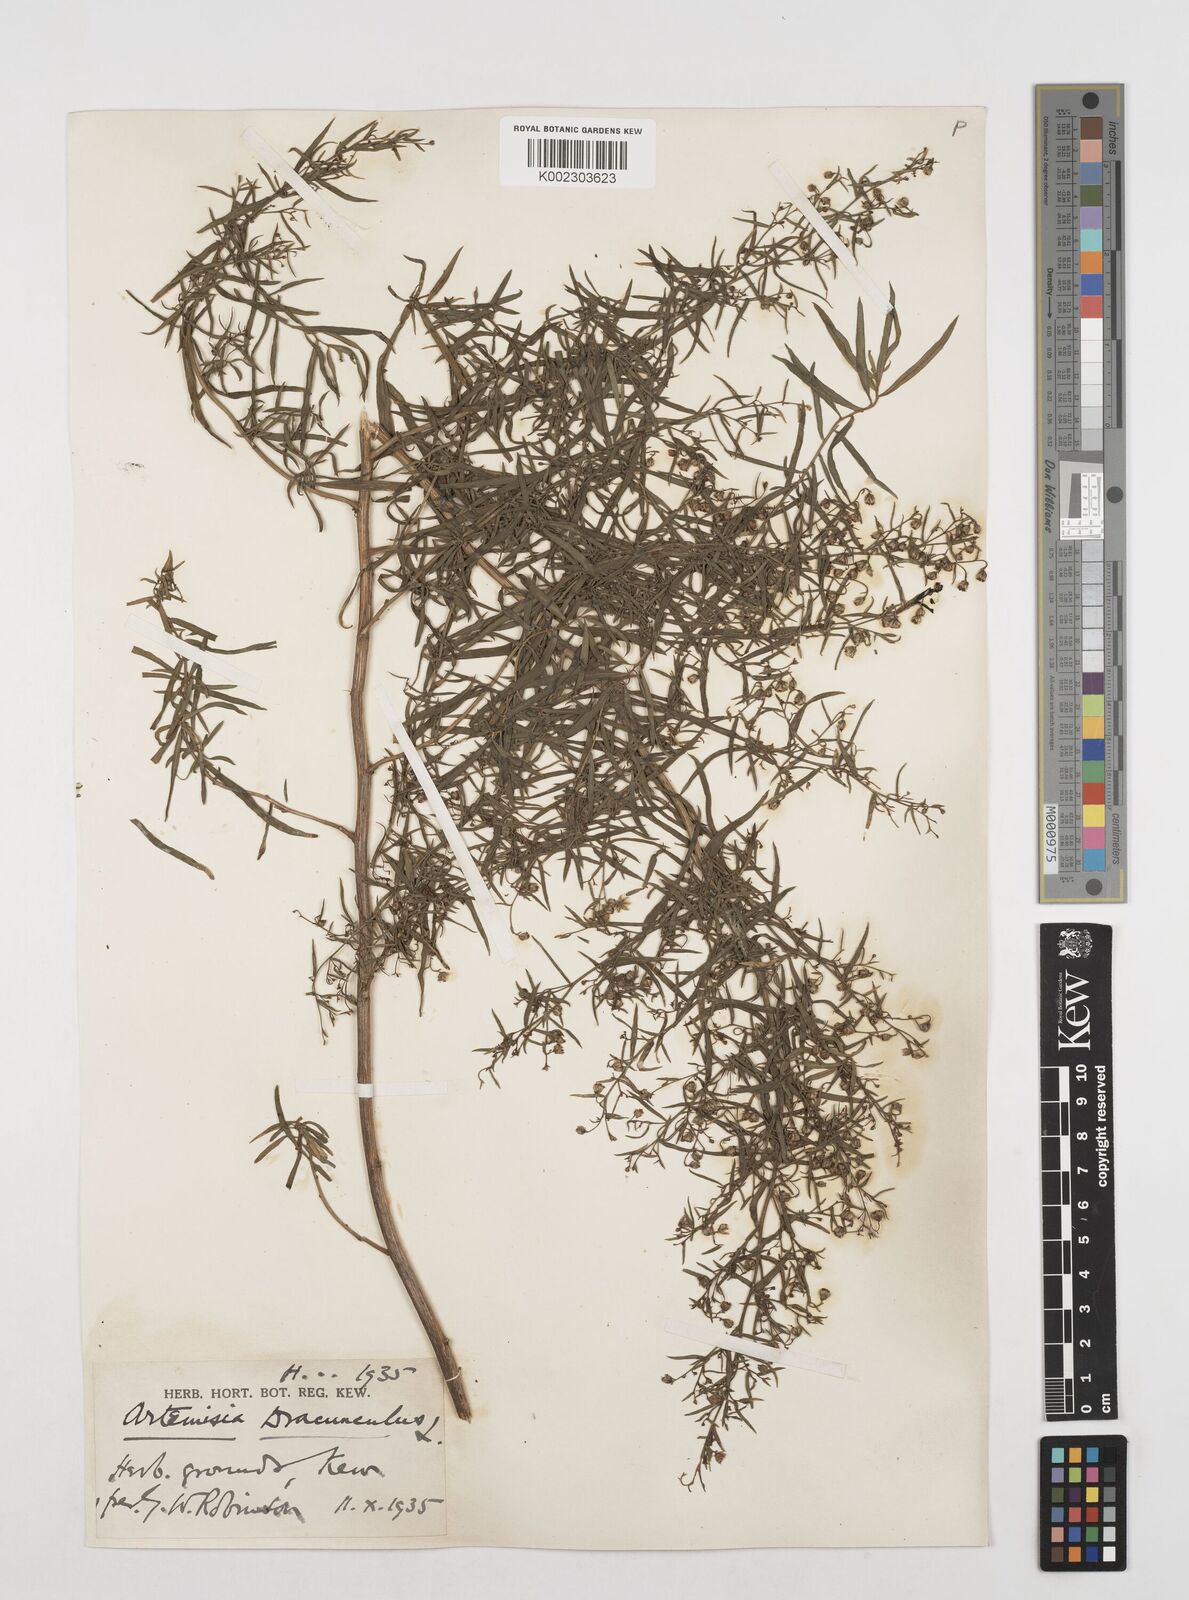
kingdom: Plantae
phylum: Tracheophyta
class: Magnoliopsida
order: Asterales
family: Asteraceae
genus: Artemisia
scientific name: Artemisia dracunculus
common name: Tarragon
